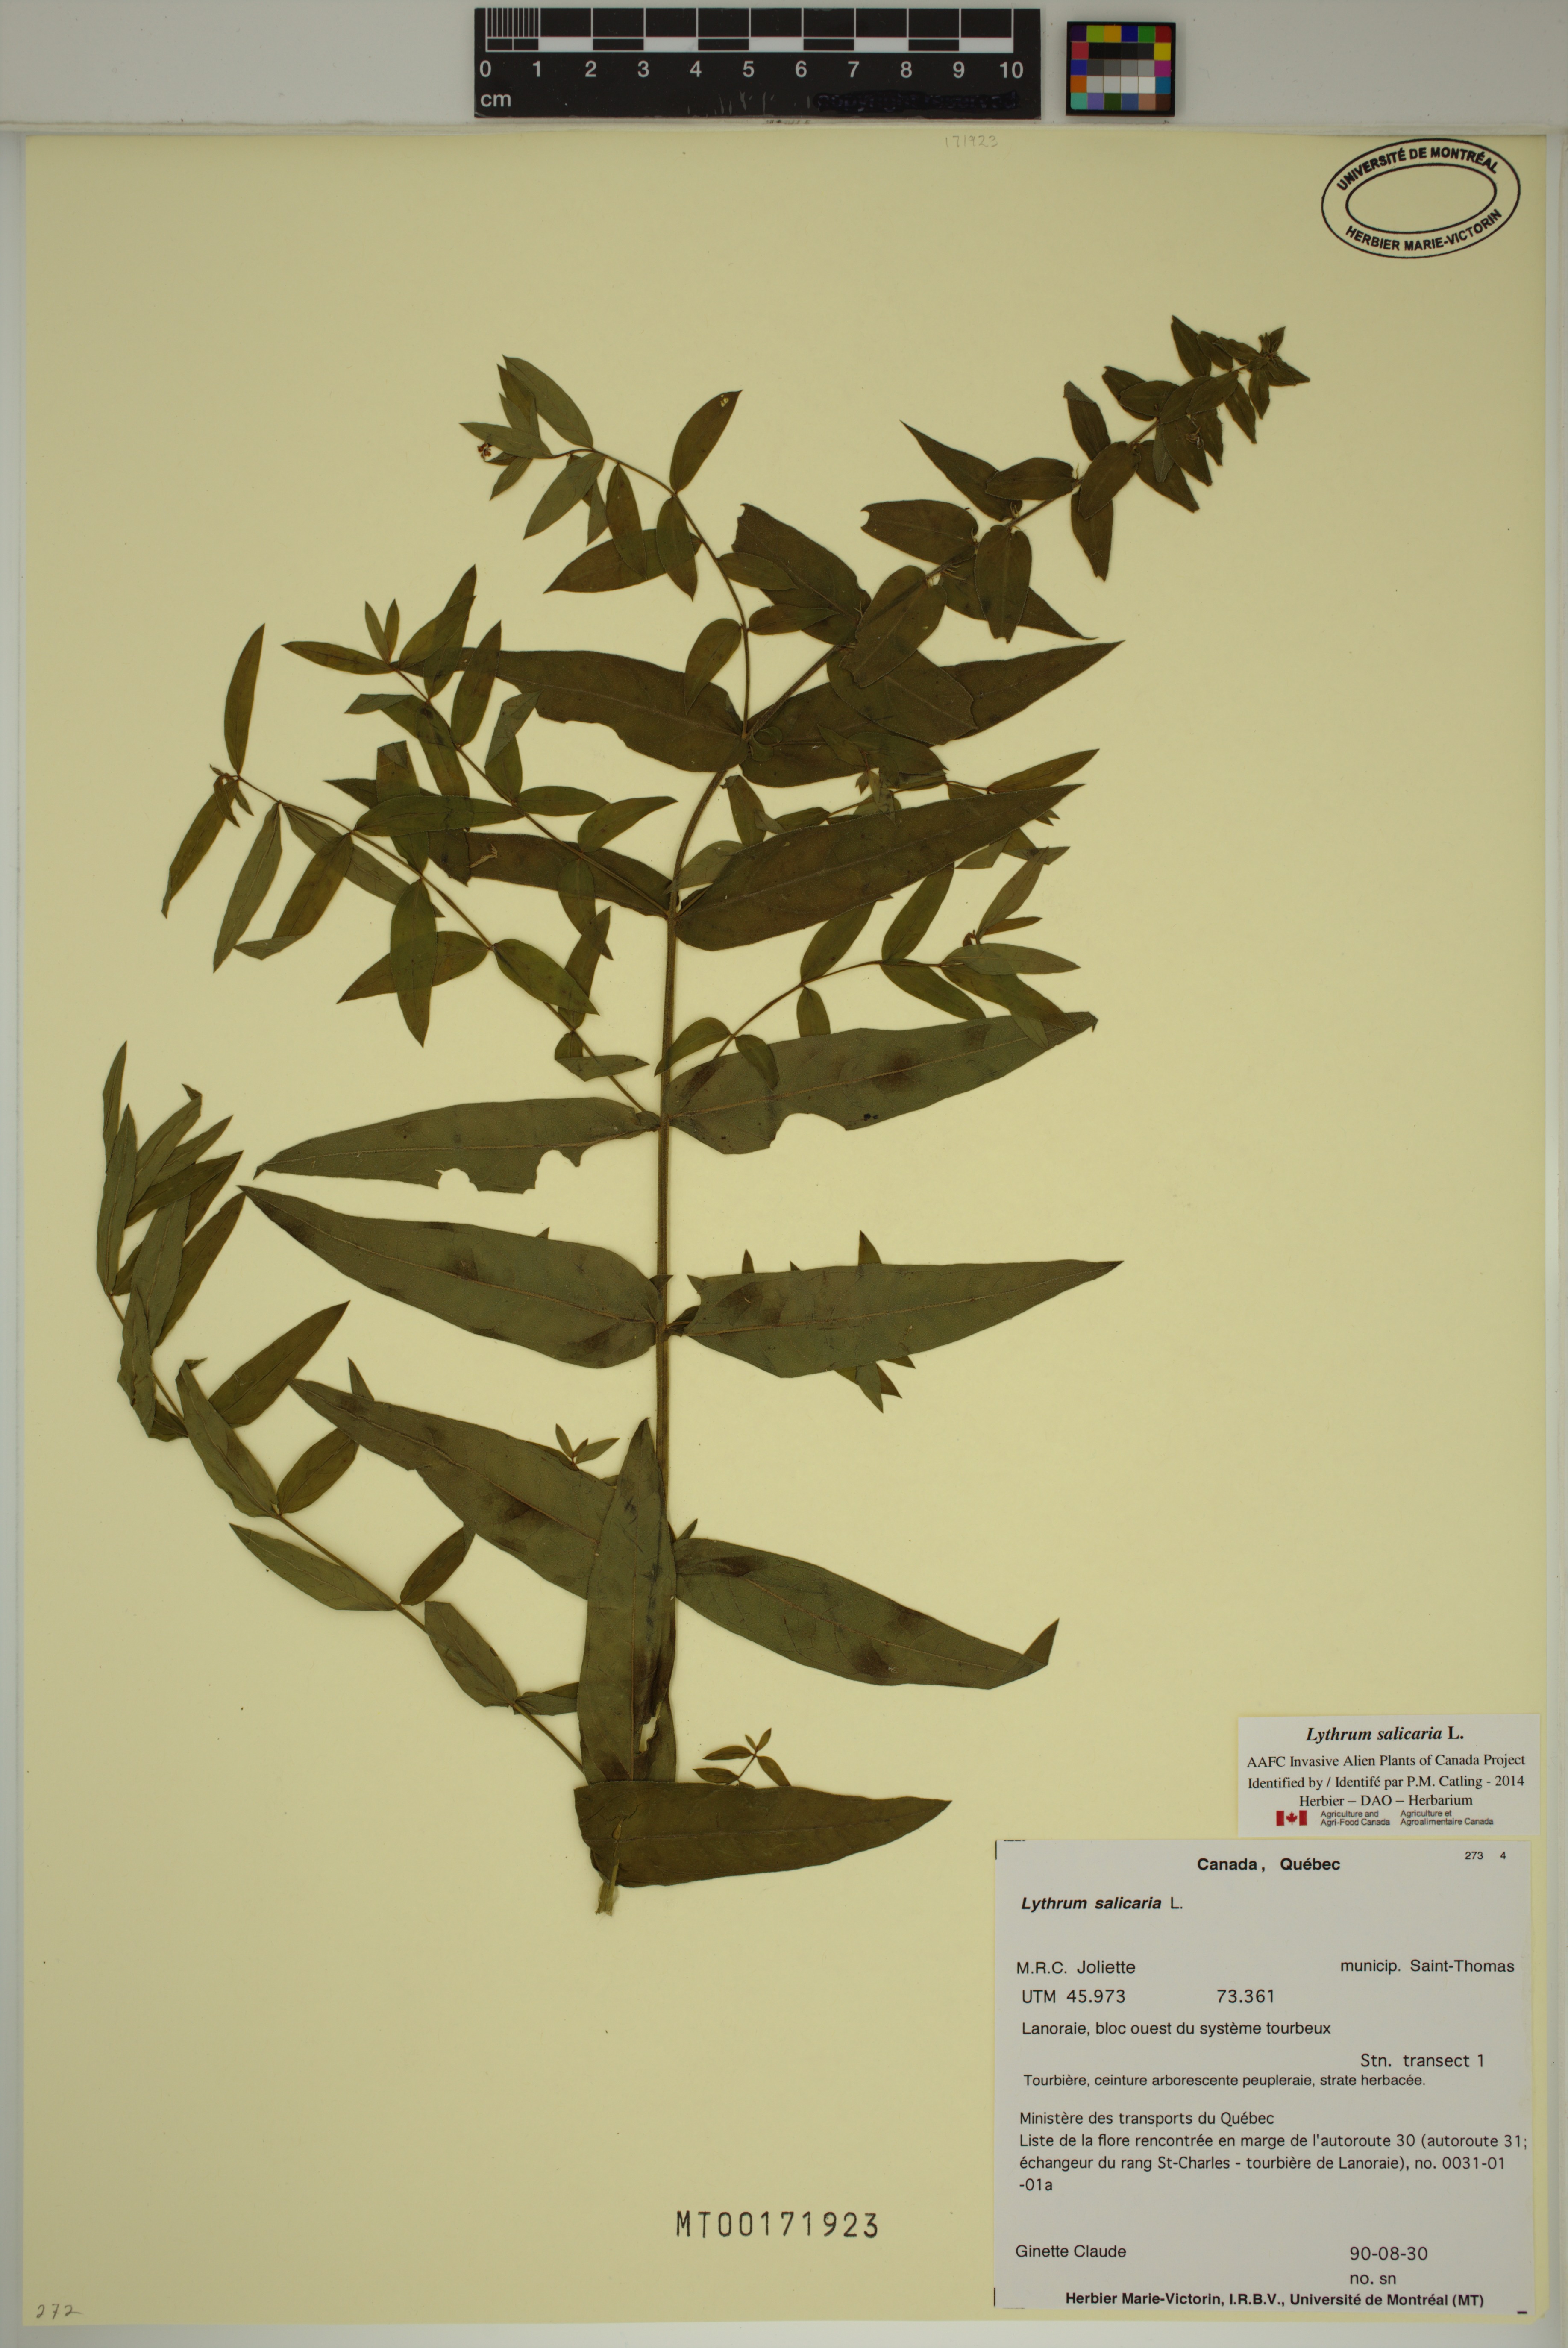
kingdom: Plantae
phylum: Tracheophyta
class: Magnoliopsida
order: Myrtales
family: Lythraceae
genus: Lythrum
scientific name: Lythrum salicaria
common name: Purple loosestrife
